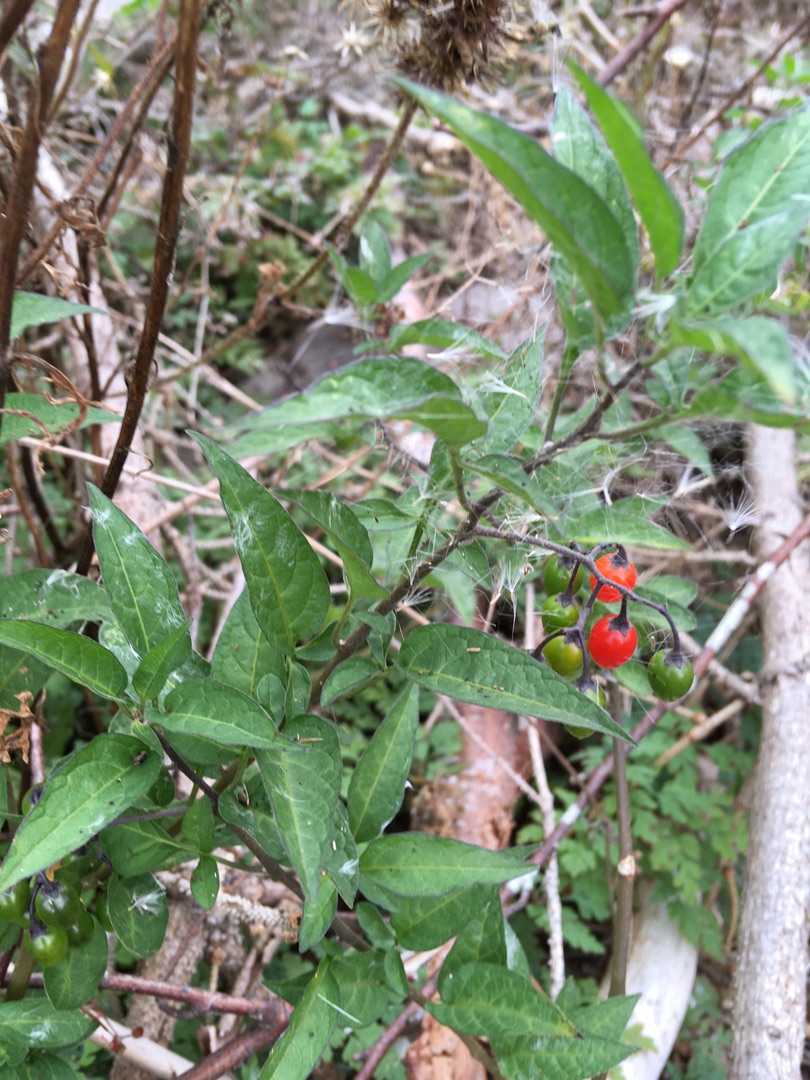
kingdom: Plantae
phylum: Tracheophyta
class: Magnoliopsida
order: Solanales
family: Solanaceae
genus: Solanum
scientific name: Solanum dulcamara
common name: Bittersød natskygge
